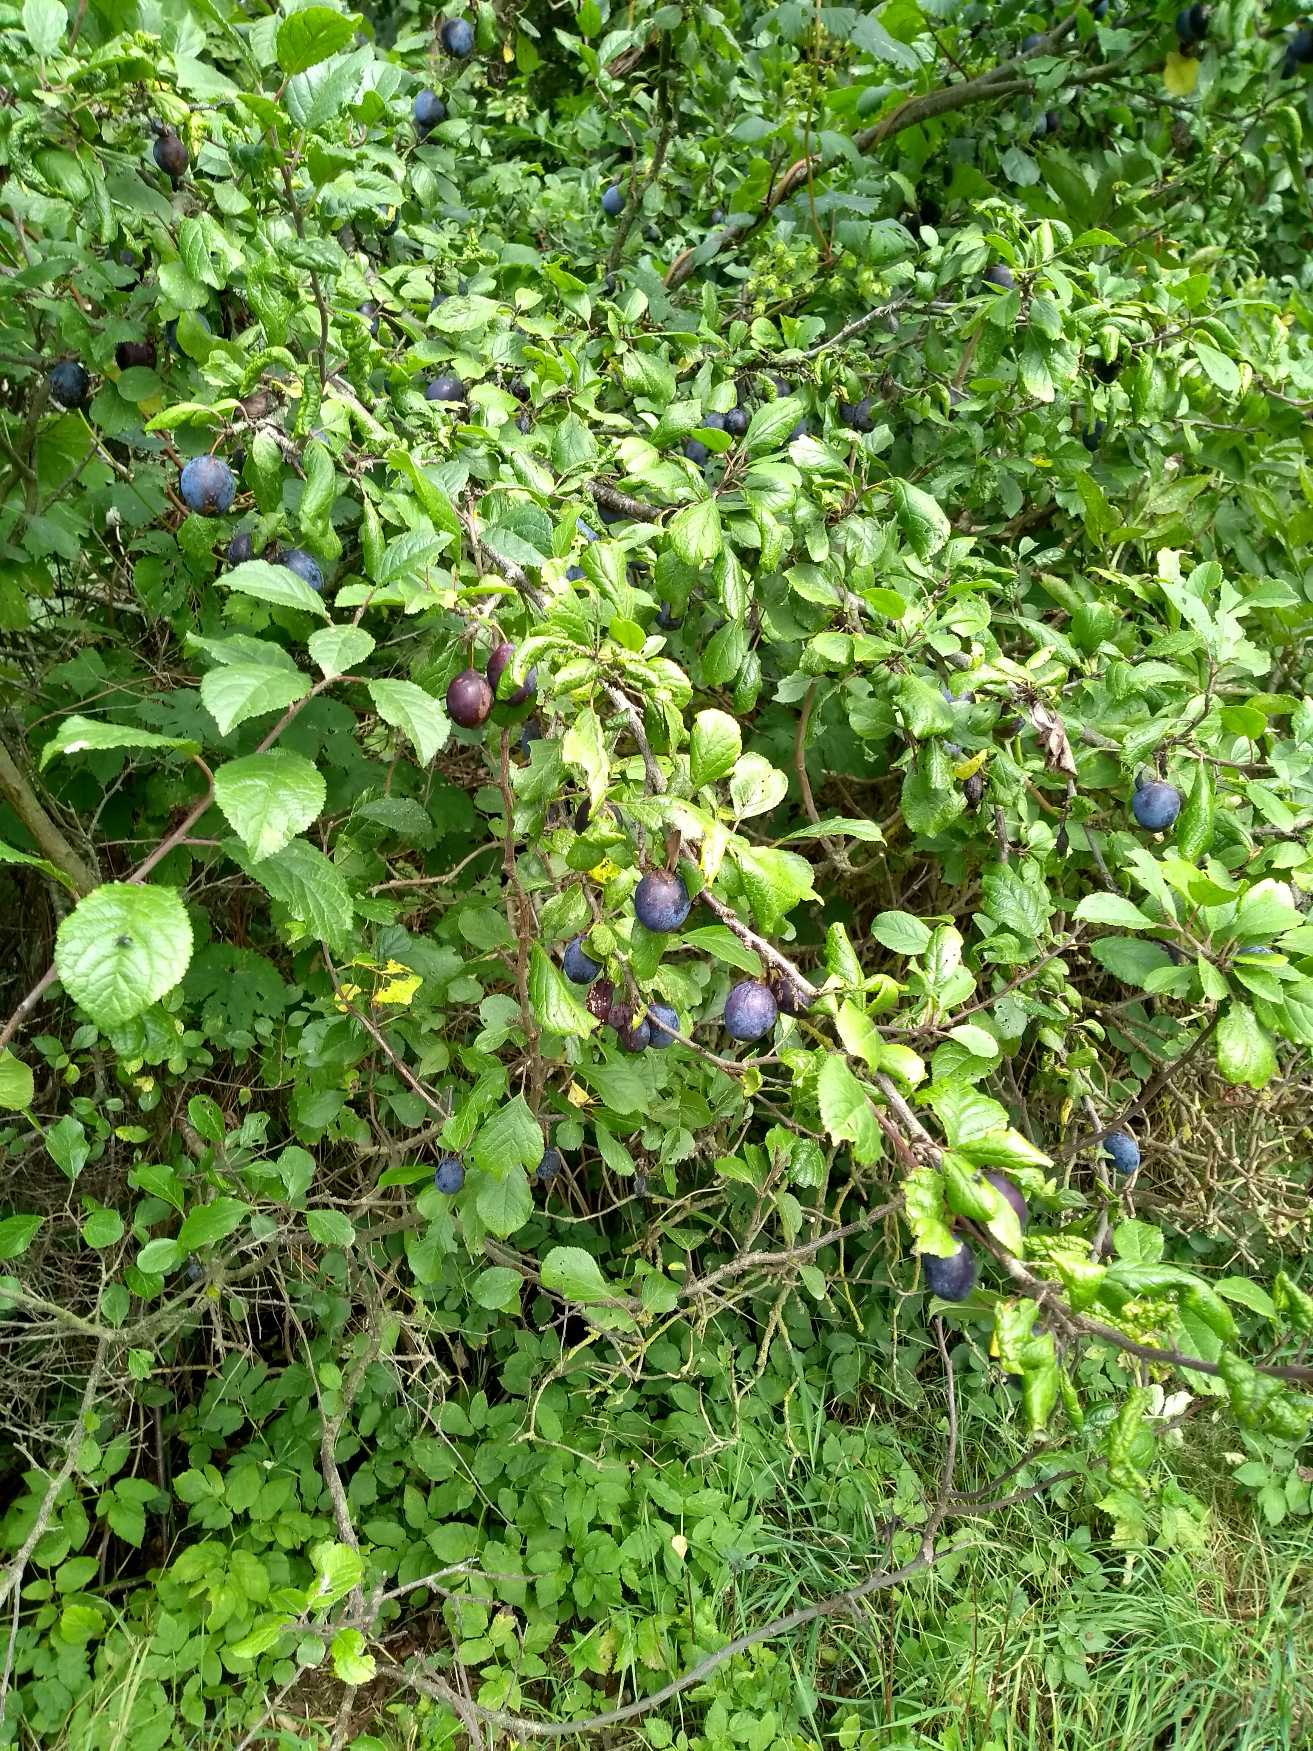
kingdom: Plantae
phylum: Tracheophyta
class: Magnoliopsida
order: Rosales
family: Rosaceae
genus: Prunus
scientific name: Prunus domestica
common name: Blomme
